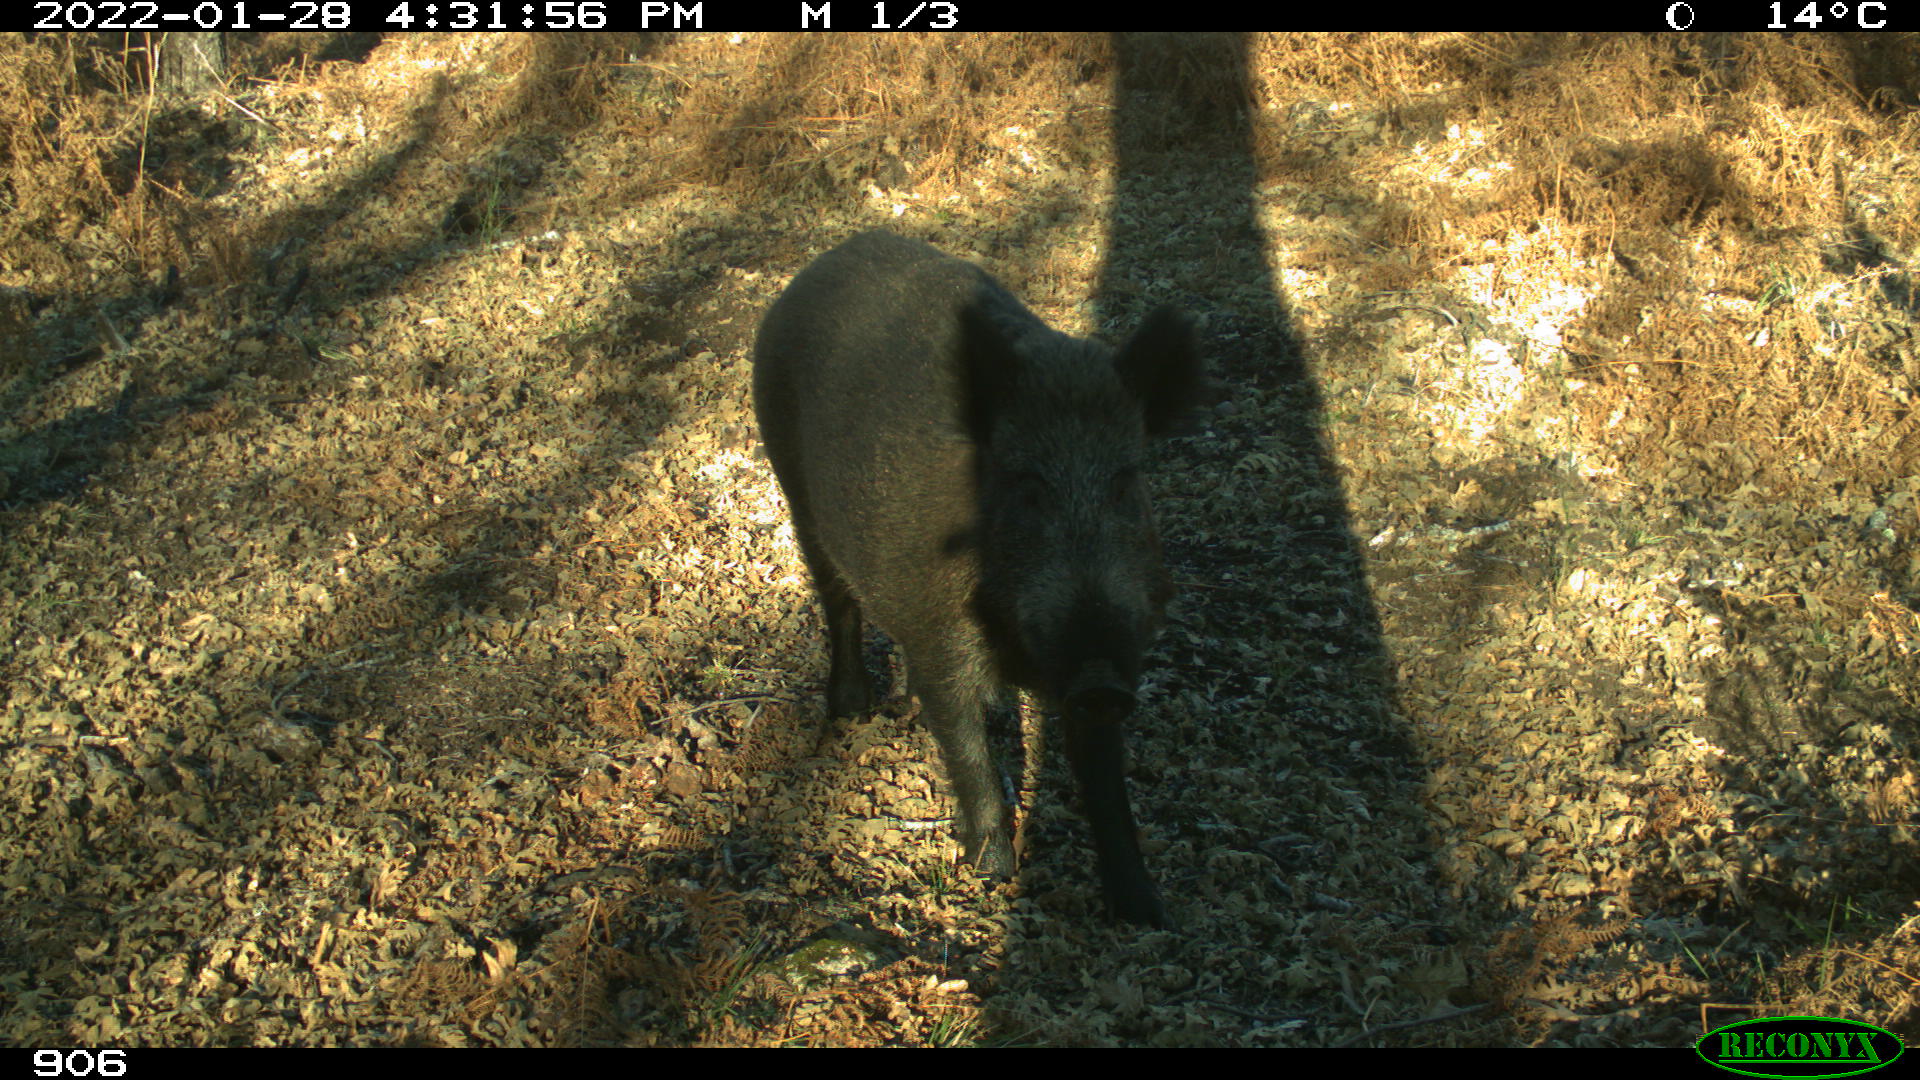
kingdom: Animalia
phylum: Chordata
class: Mammalia
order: Artiodactyla
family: Suidae
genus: Sus
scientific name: Sus scrofa
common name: Wild boar
